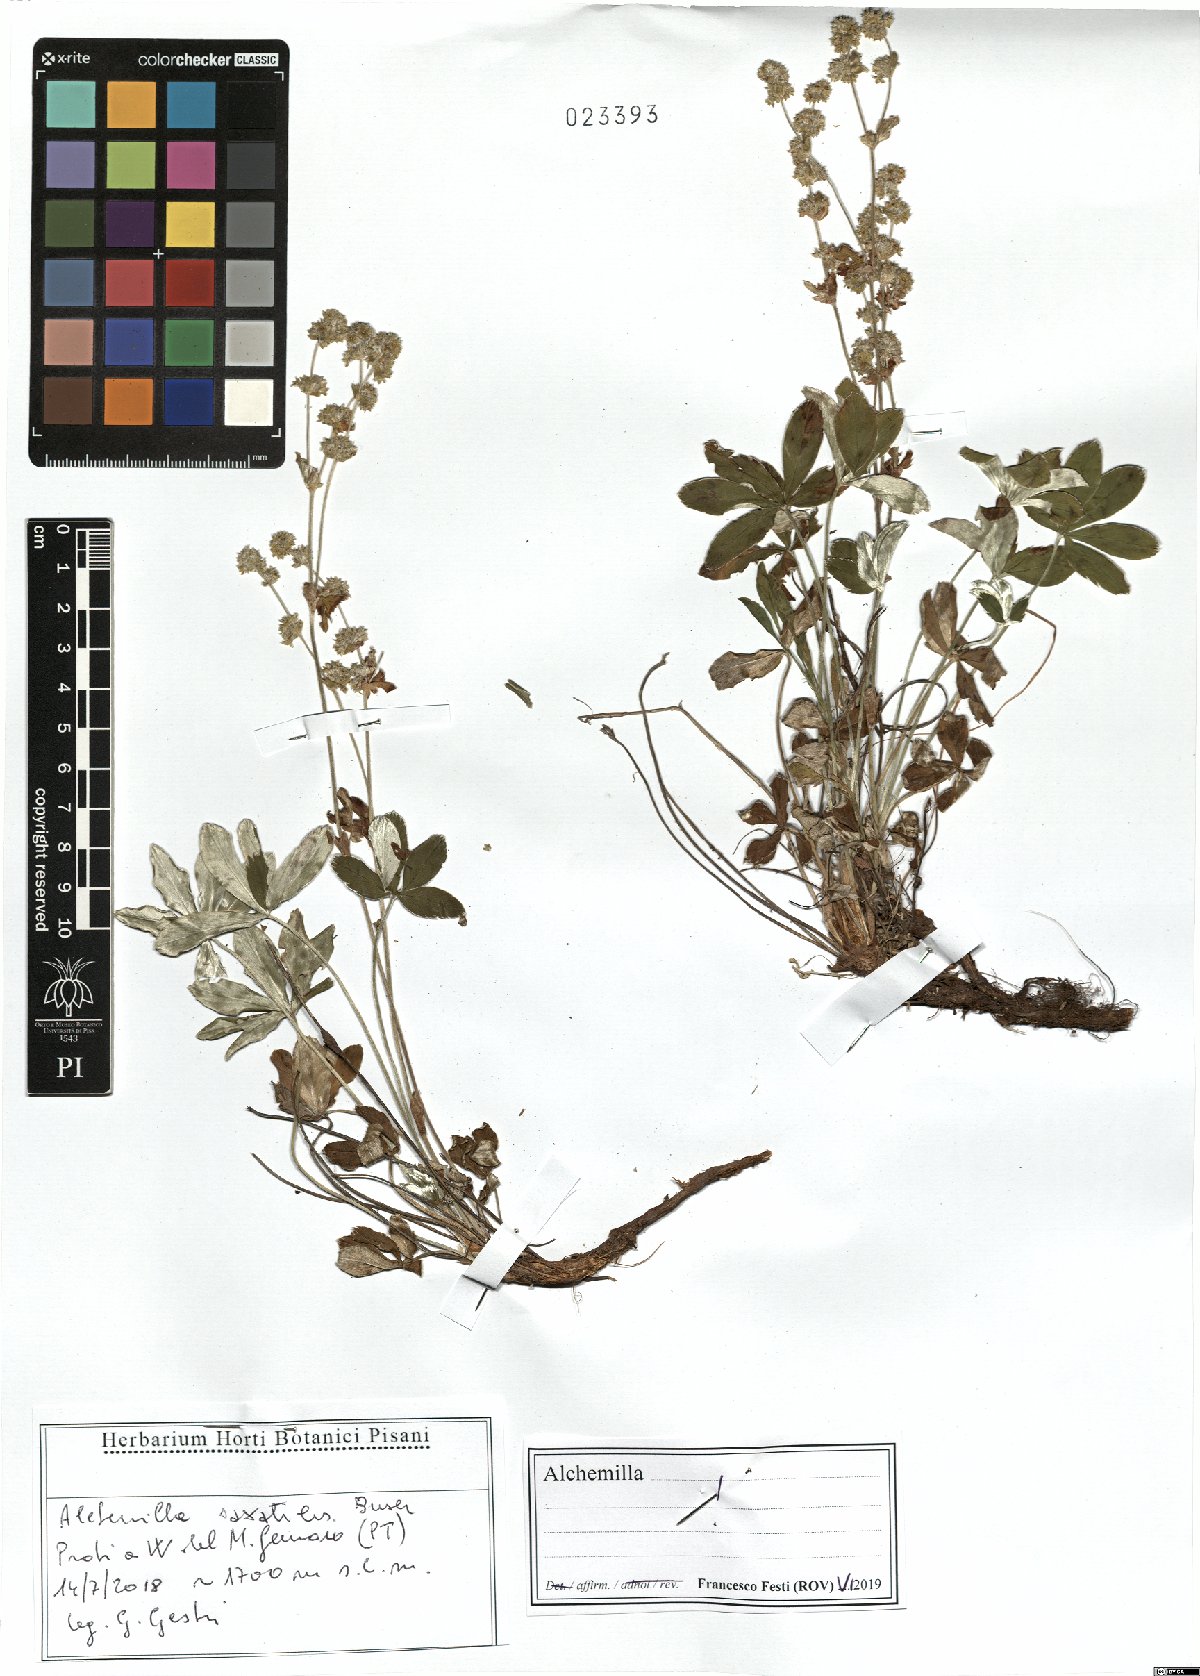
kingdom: Plantae
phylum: Tracheophyta
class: Magnoliopsida
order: Rosales
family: Rosaceae
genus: Alchemilla
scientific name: Alchemilla saxatilis
